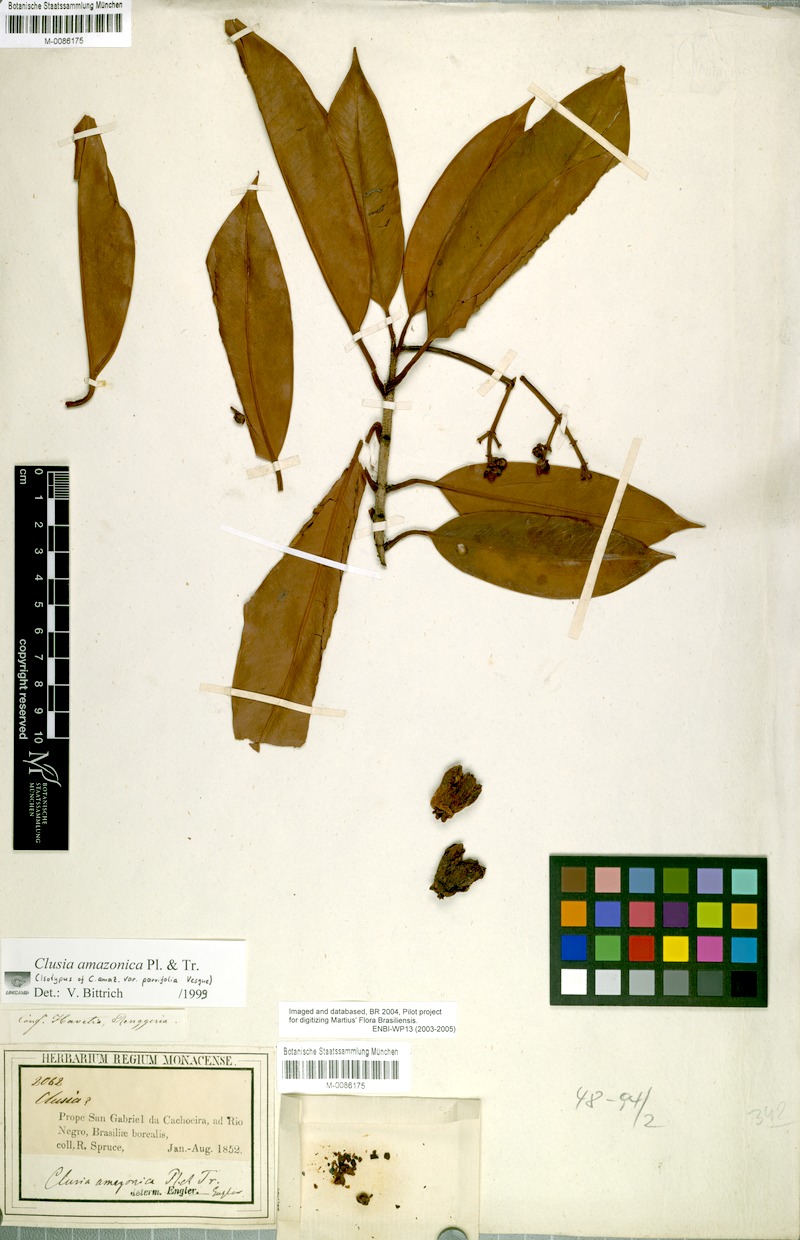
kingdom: Plantae
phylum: Tracheophyta
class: Magnoliopsida
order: Malpighiales
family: Clusiaceae
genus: Clusia
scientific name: Clusia amazonica
